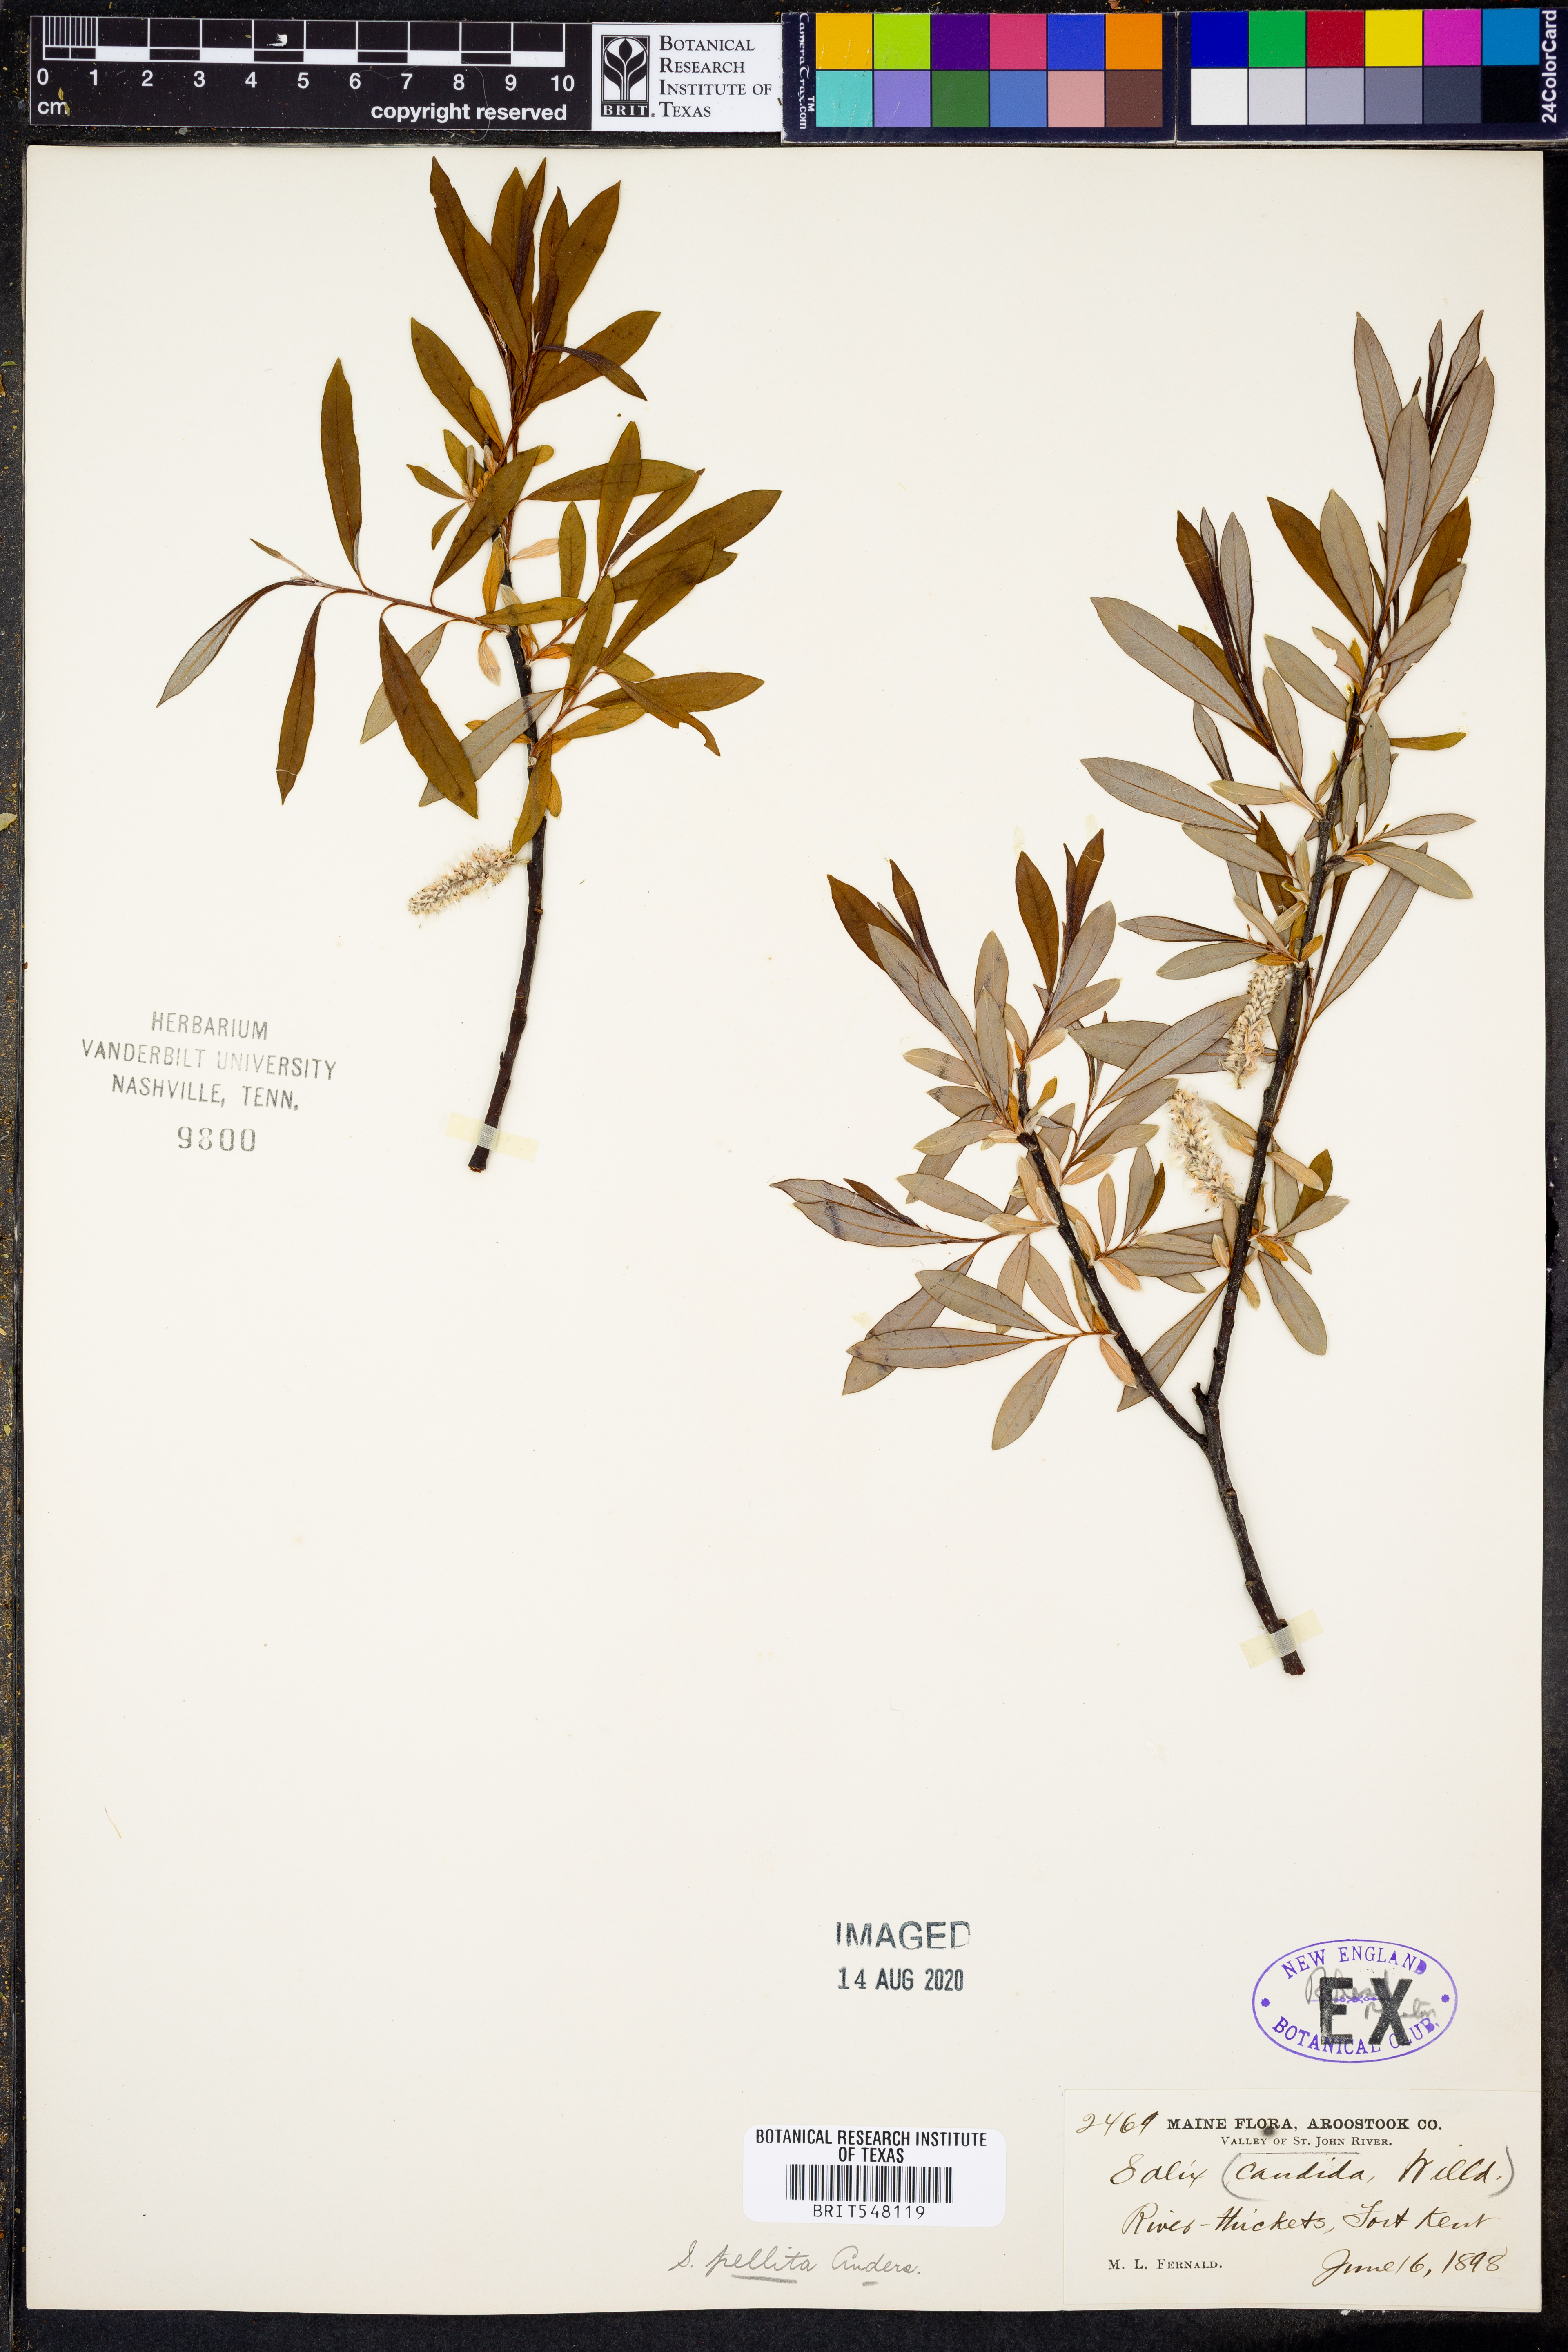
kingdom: Plantae
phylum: Tracheophyta
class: Magnoliopsida
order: Malpighiales
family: Salicaceae
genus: Salix
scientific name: Salix candida
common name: Hoary willow
